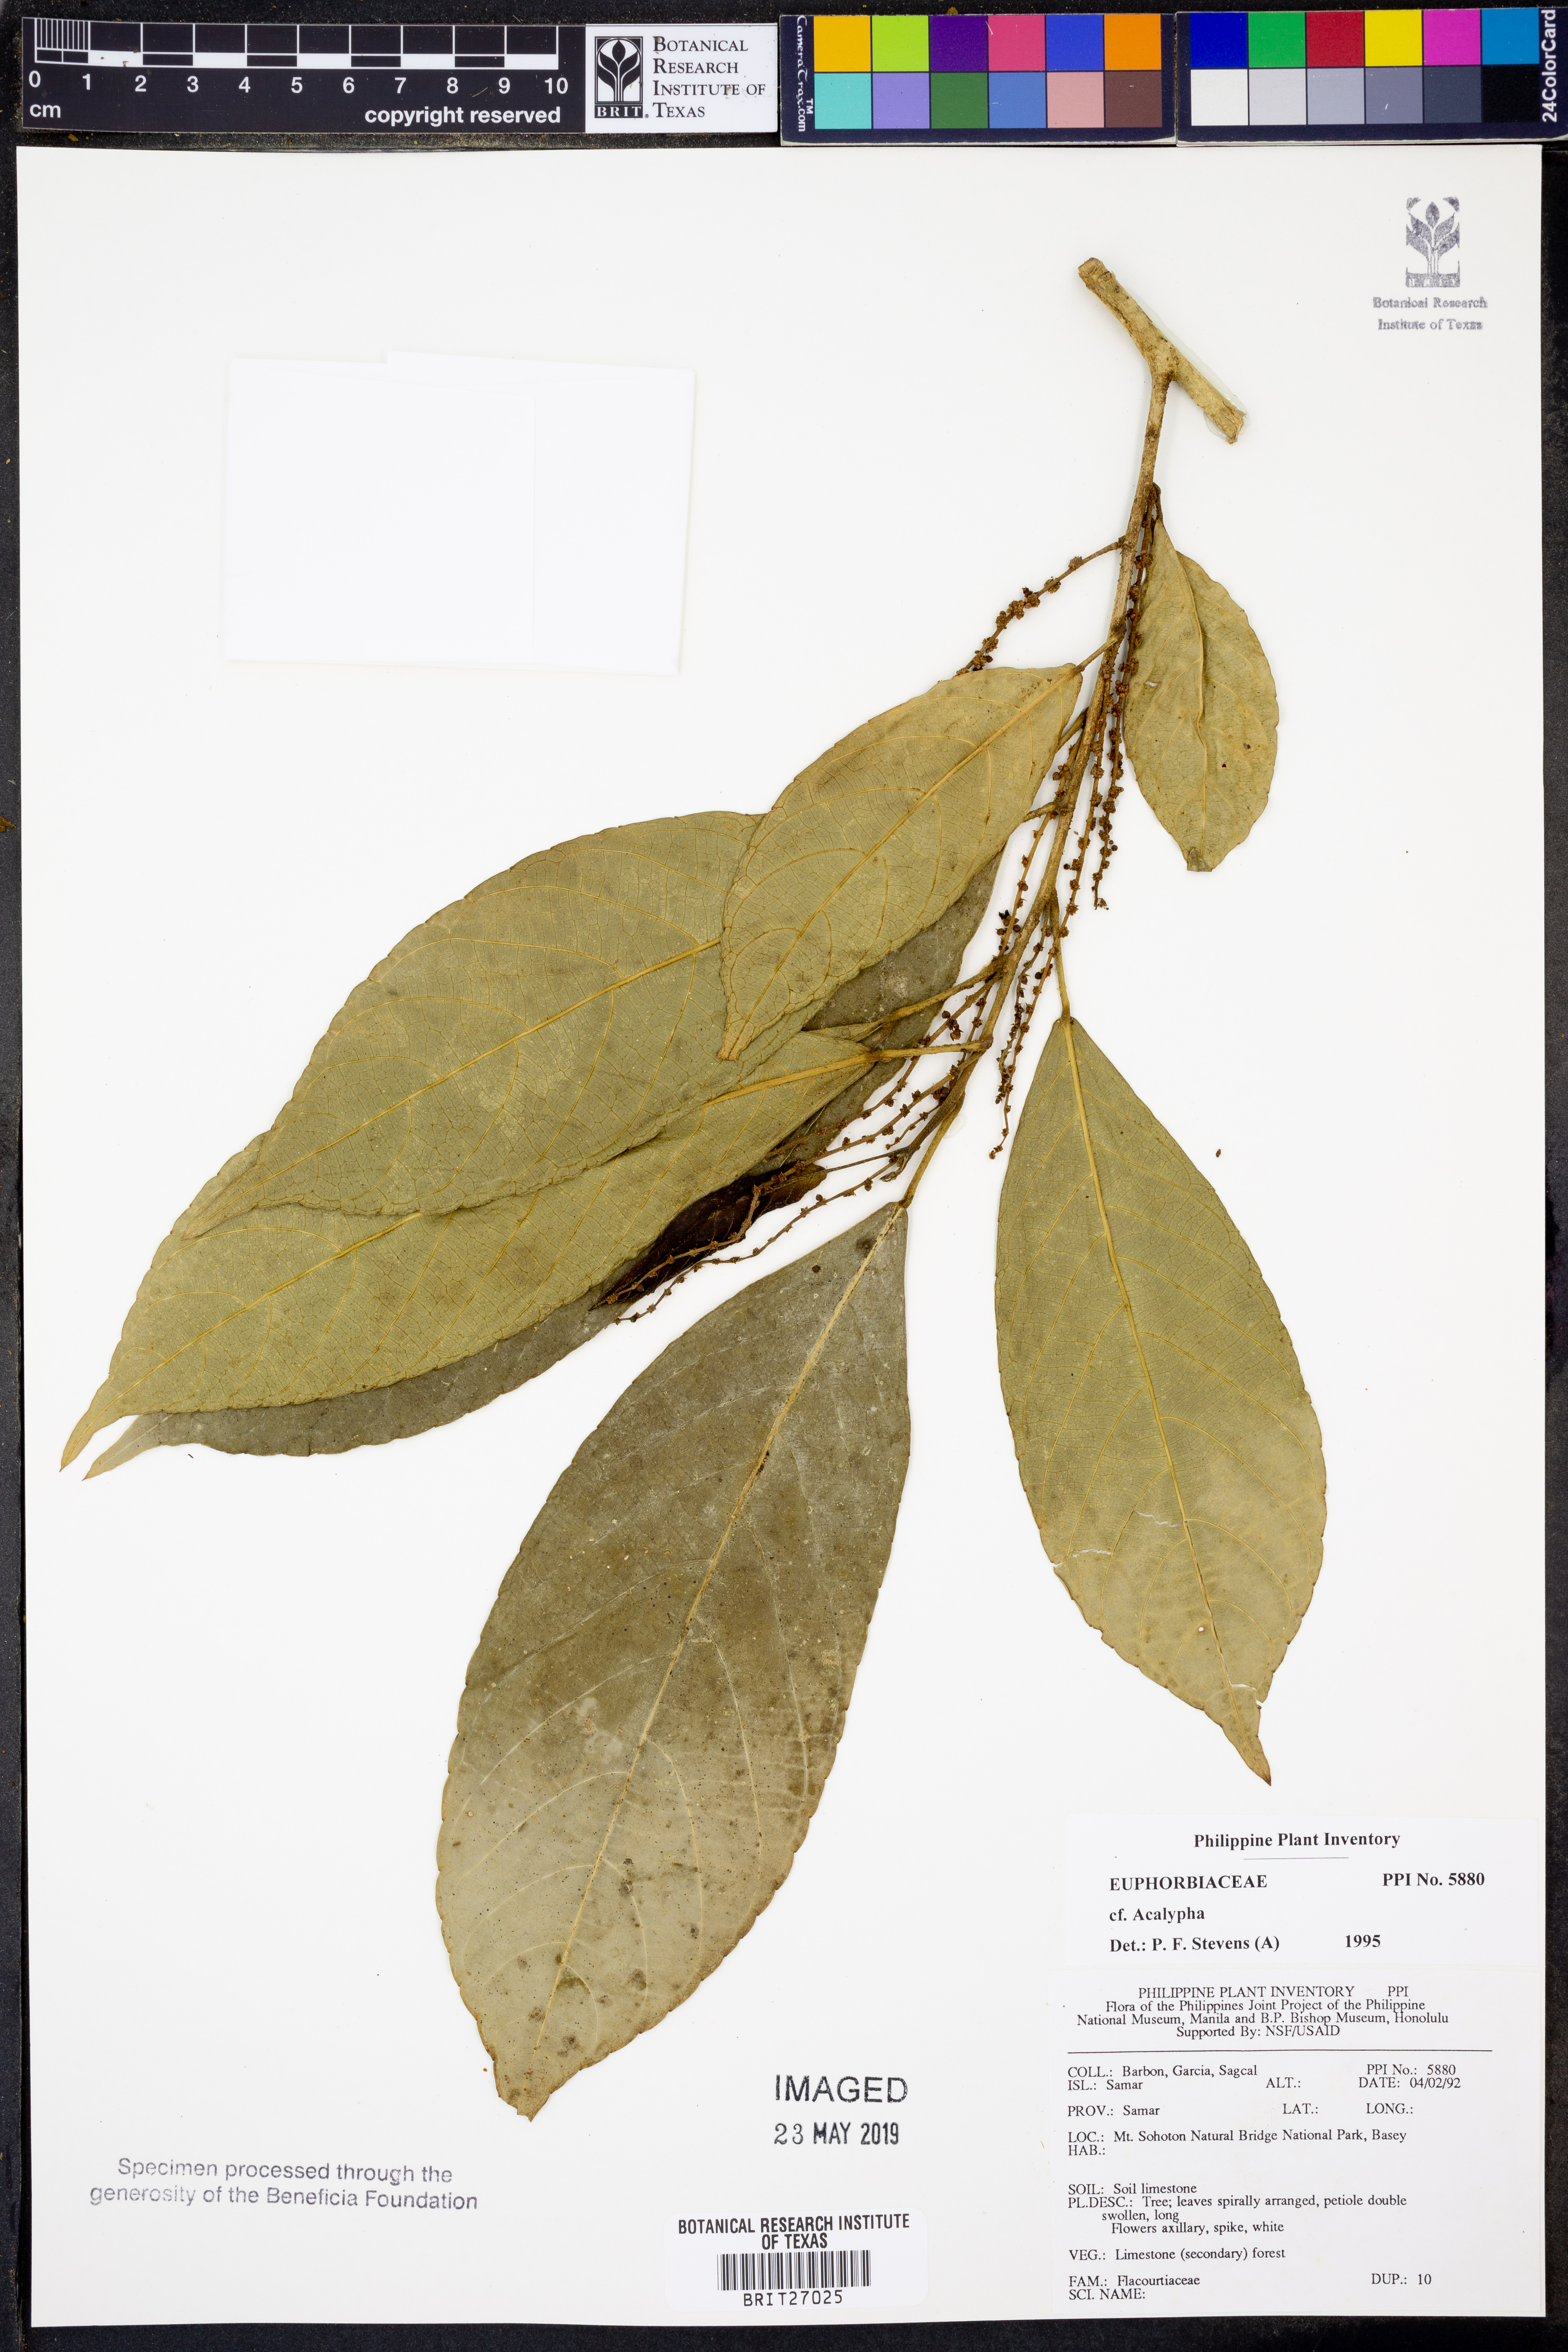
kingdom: Plantae
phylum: Tracheophyta
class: Magnoliopsida
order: Malpighiales
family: Euphorbiaceae
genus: Acalypha
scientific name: Acalypha
